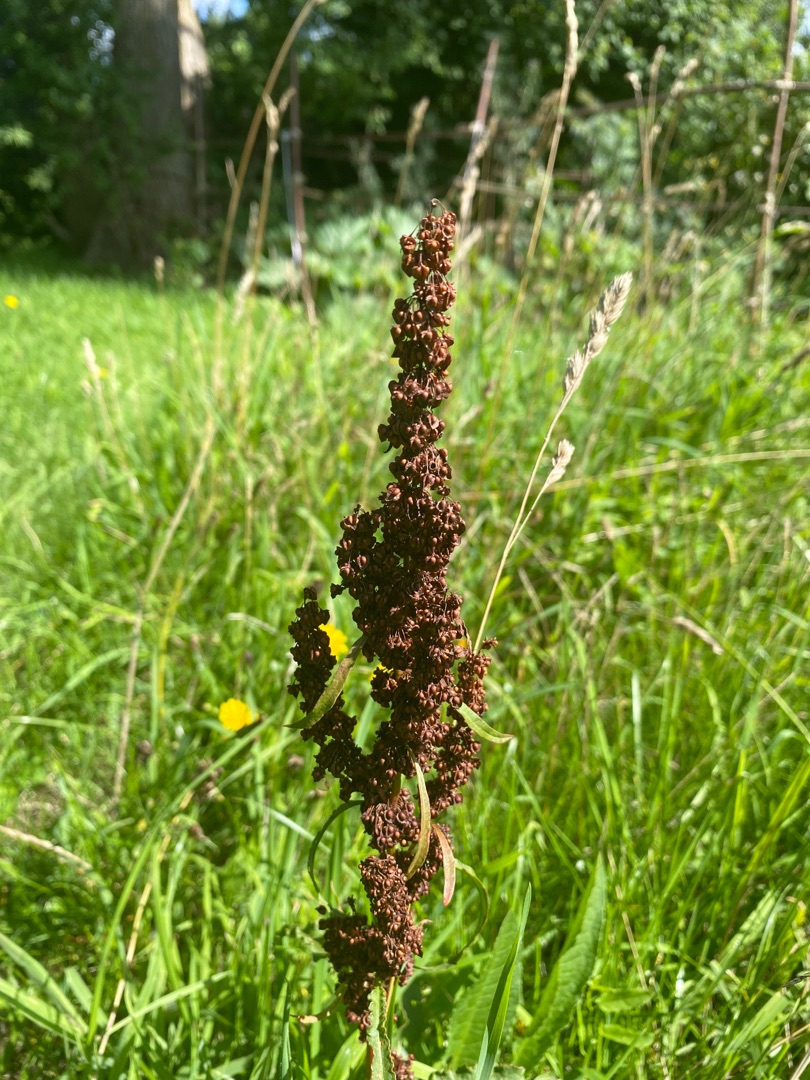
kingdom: Plantae
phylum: Tracheophyta
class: Magnoliopsida
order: Caryophyllales
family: Polygonaceae
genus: Rumex
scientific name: Rumex crispus
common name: Kruset skræppe
